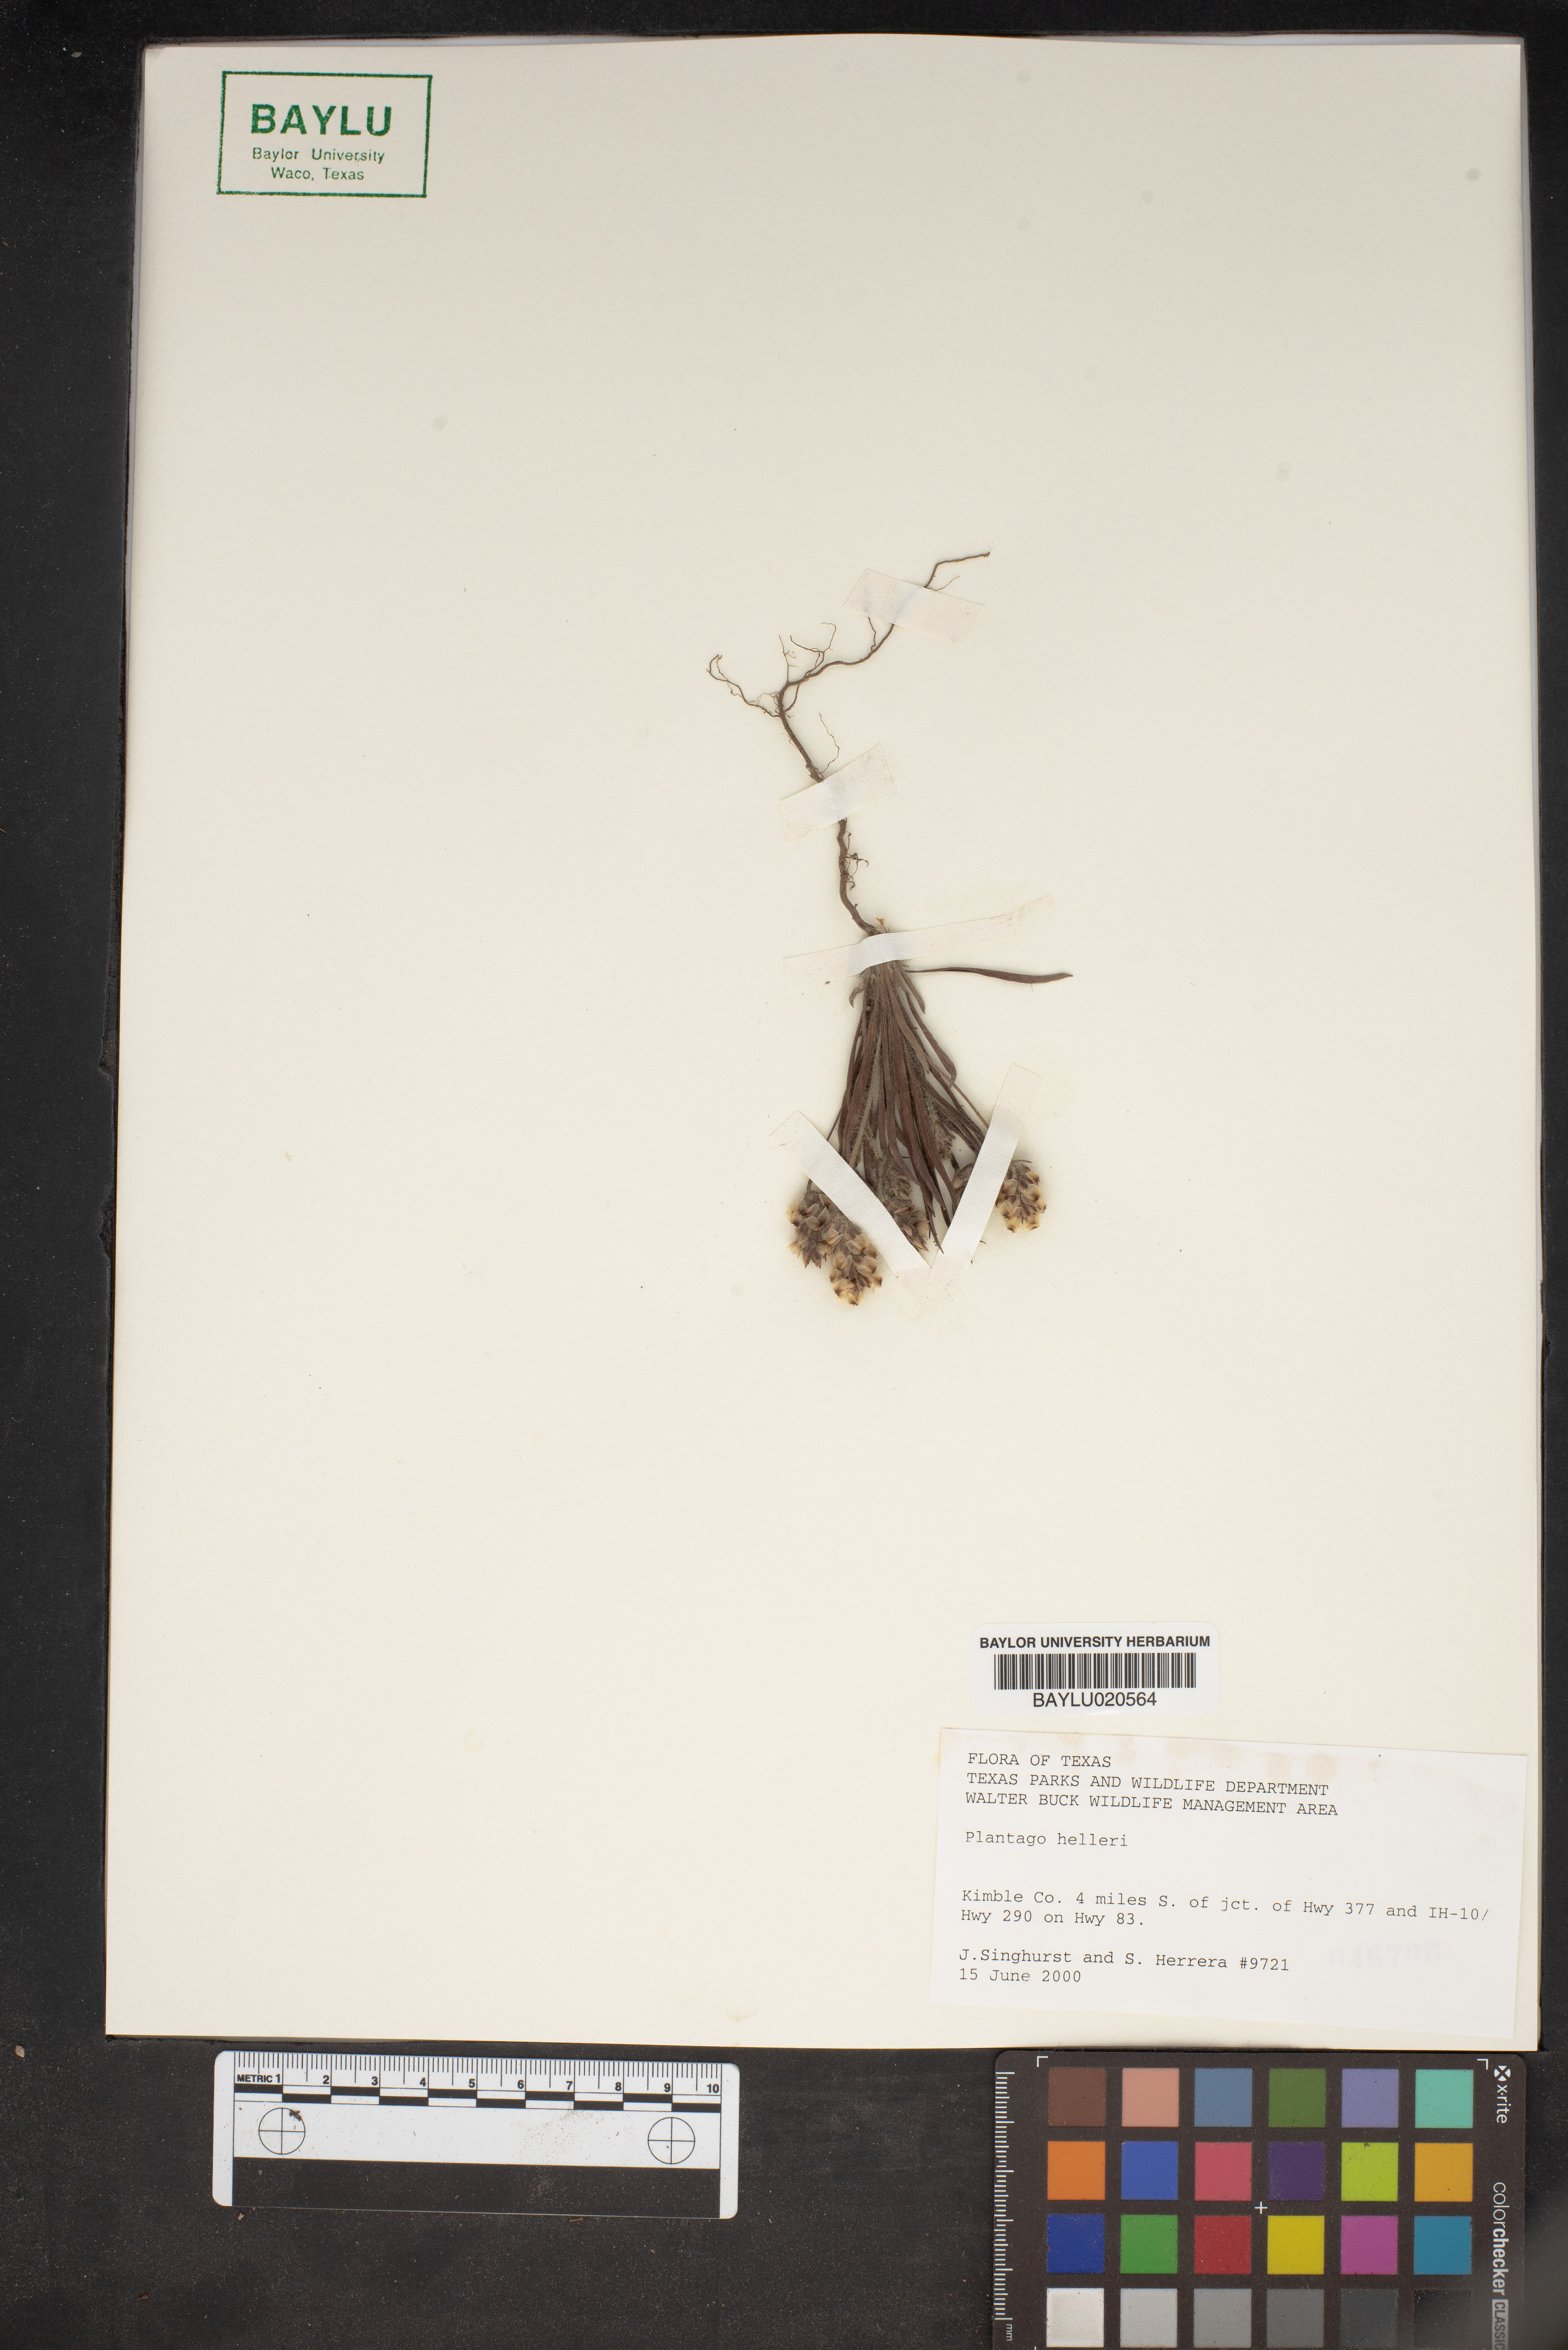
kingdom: Plantae
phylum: Tracheophyta
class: Magnoliopsida
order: Lamiales
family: Plantaginaceae
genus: Plantago
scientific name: Plantago helleri
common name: Heller's plantain
